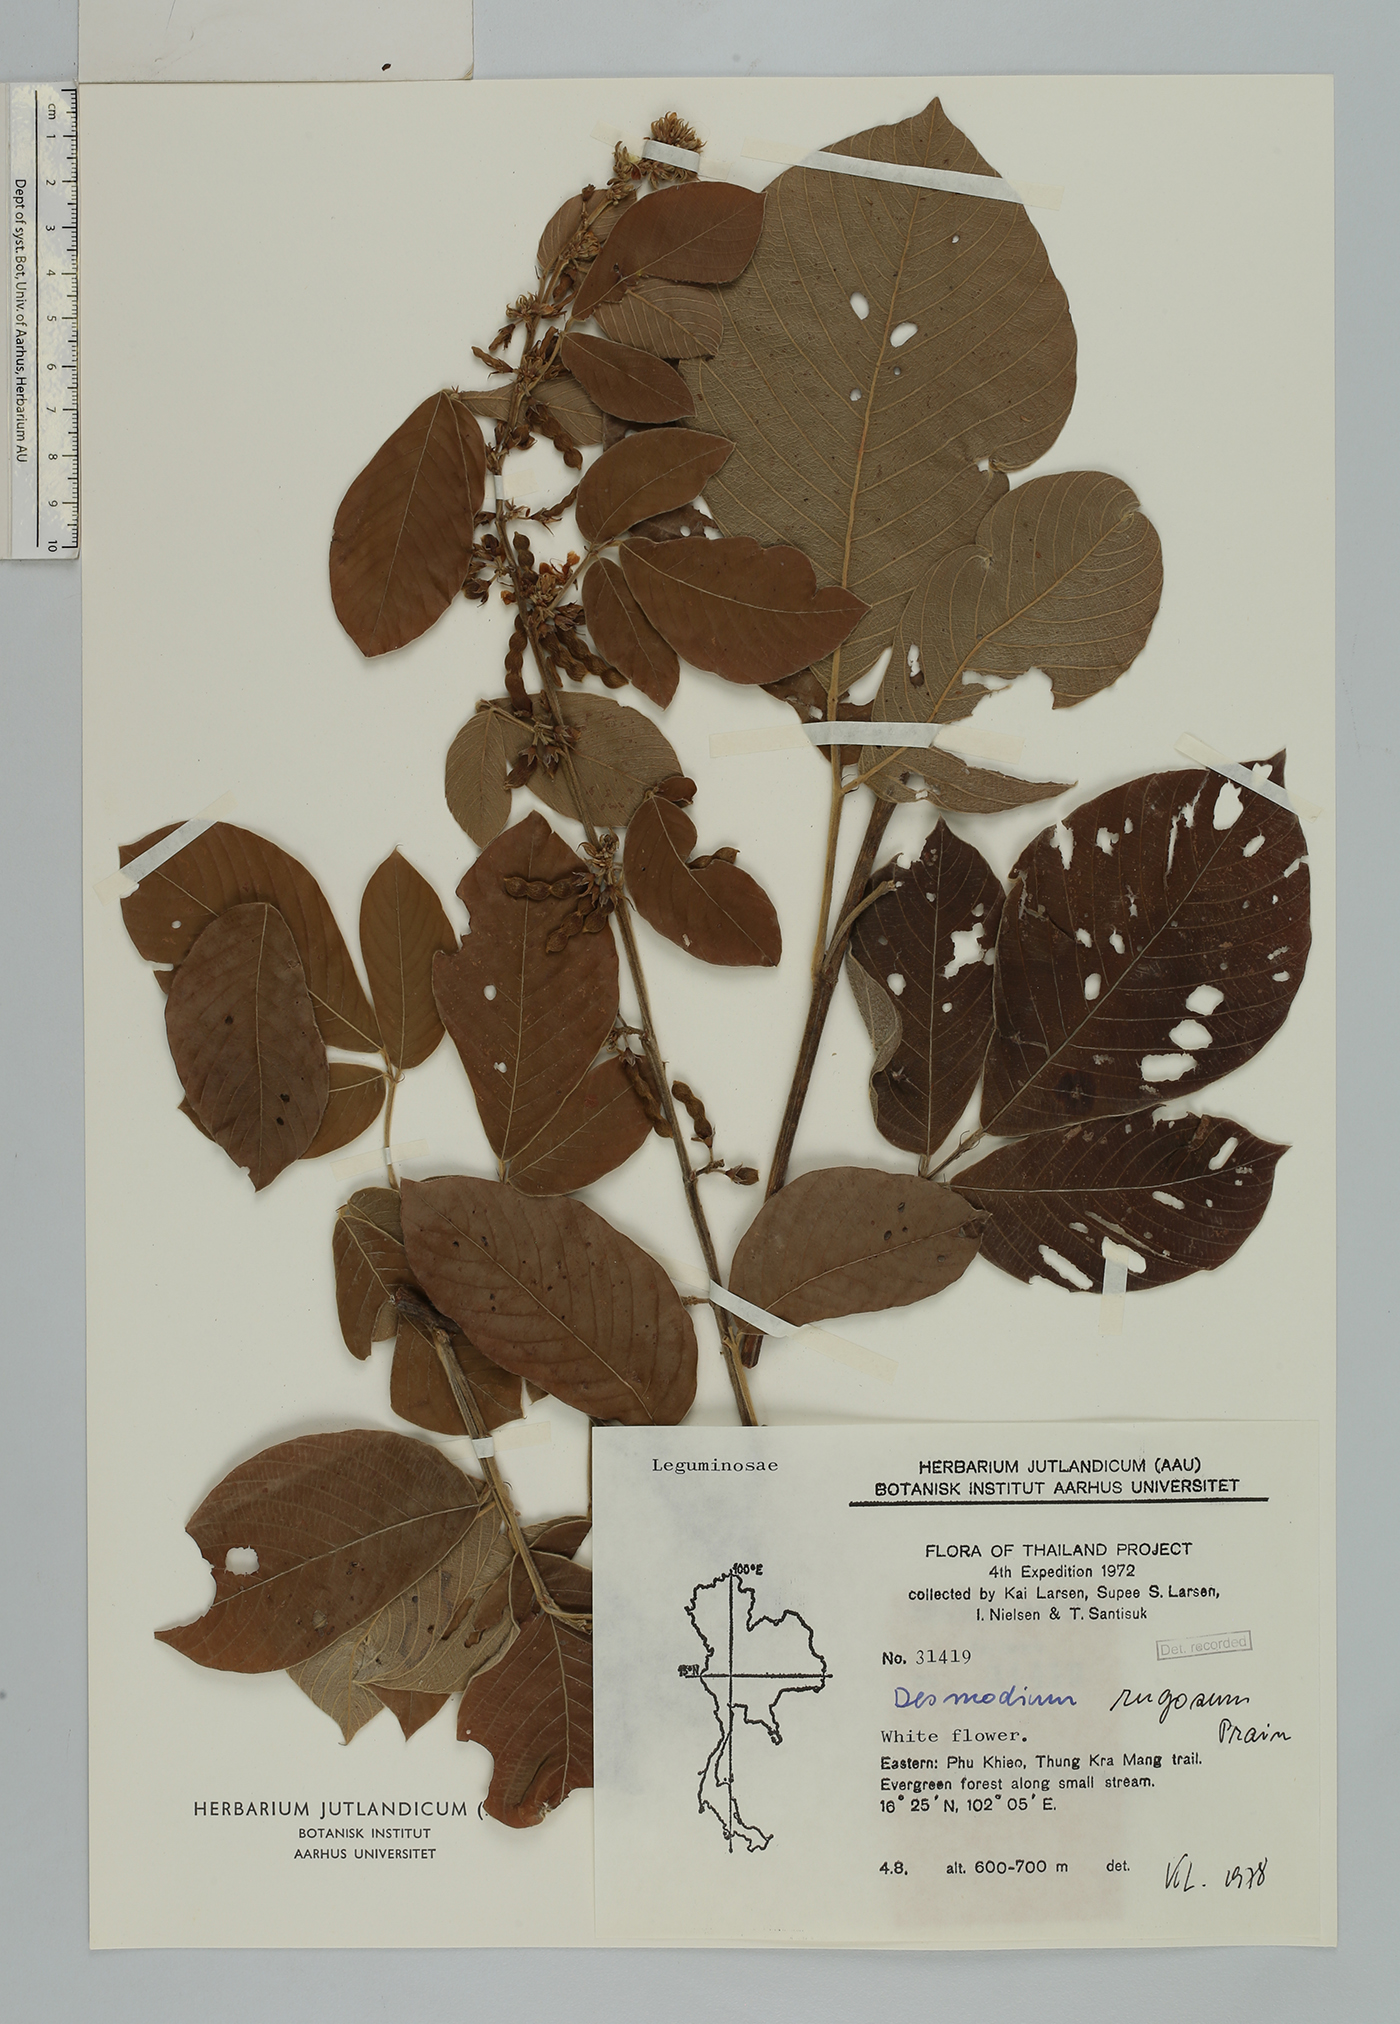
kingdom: Plantae
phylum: Tracheophyta
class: Magnoliopsida
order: Fabales
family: Fabaceae
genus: Dendrolobium
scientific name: Dendrolobium rugosum
